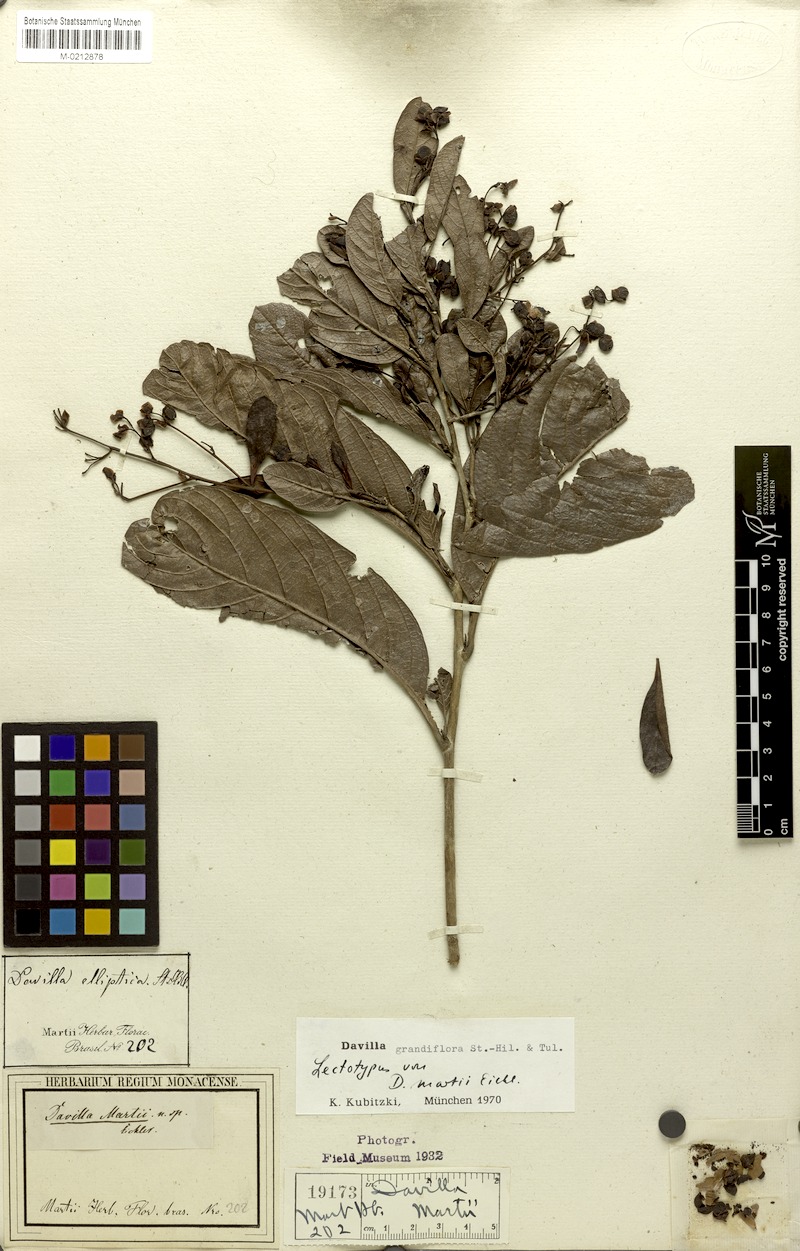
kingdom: Plantae
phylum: Tracheophyta
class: Magnoliopsida
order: Dilleniales
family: Dilleniaceae
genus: Davilla
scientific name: Davilla grandiflora
